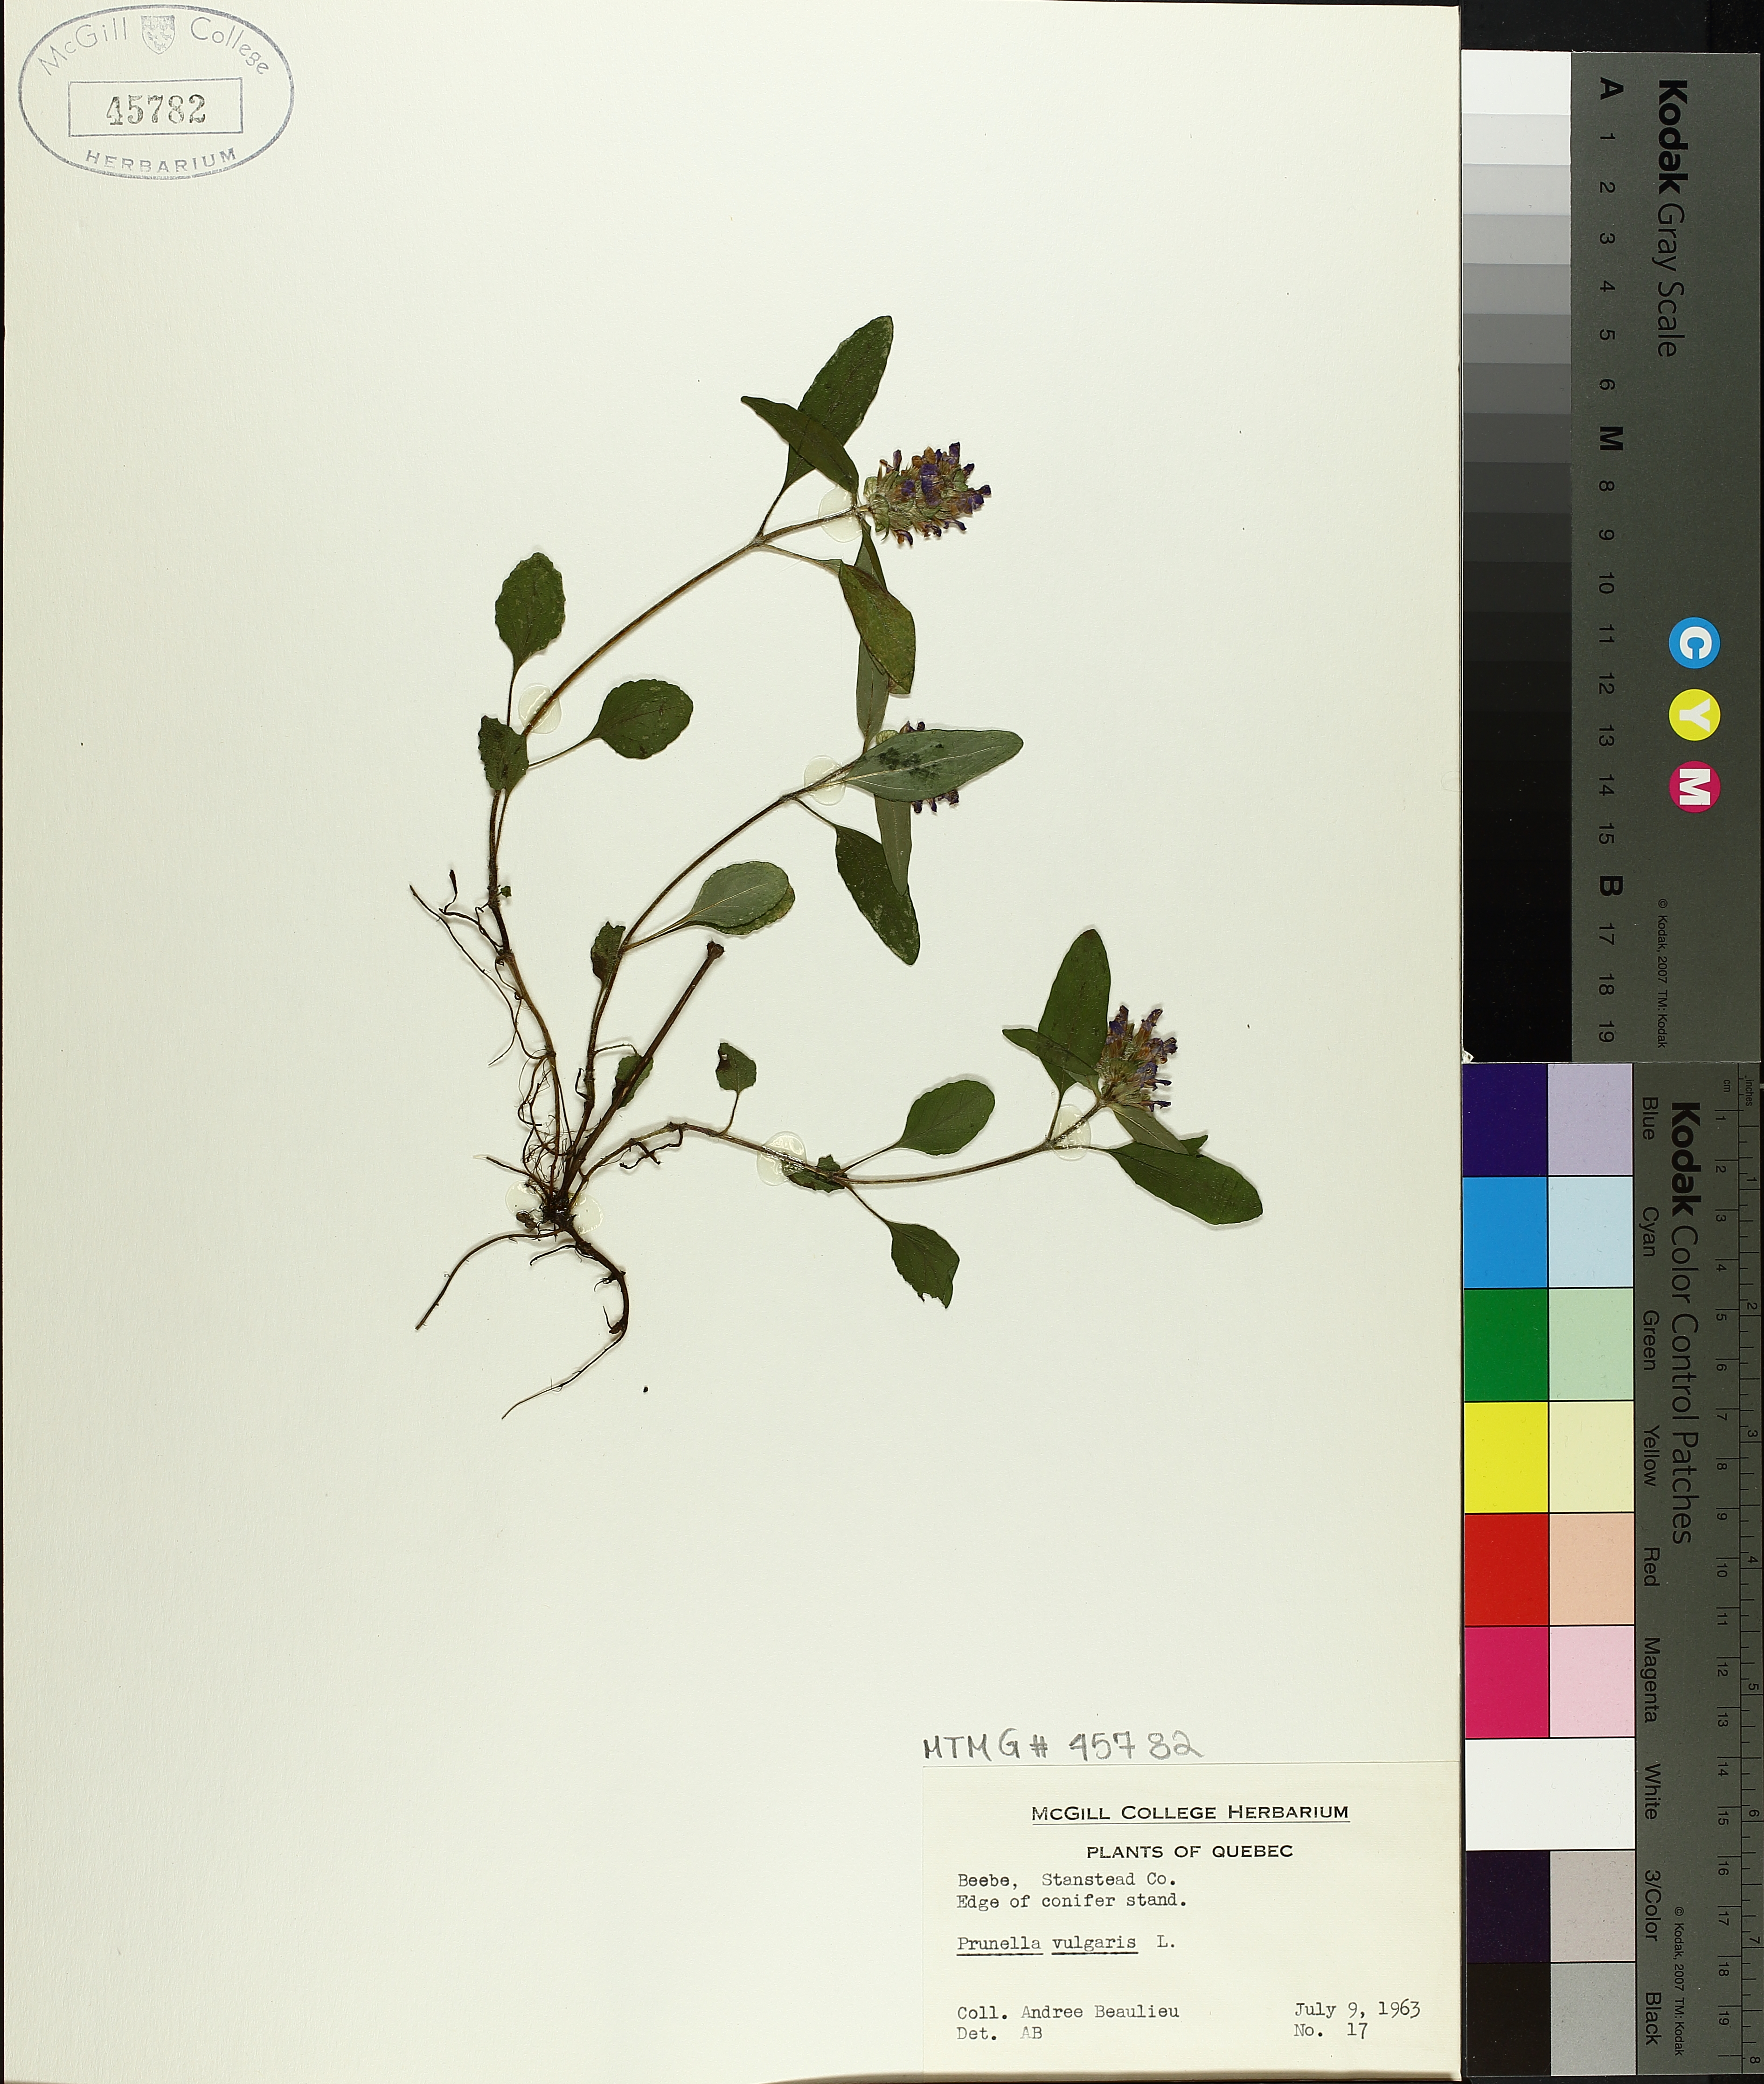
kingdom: Plantae
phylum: Tracheophyta
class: Magnoliopsida
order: Lamiales
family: Lamiaceae
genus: Prunella
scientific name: Prunella vulgaris
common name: Heal-all
